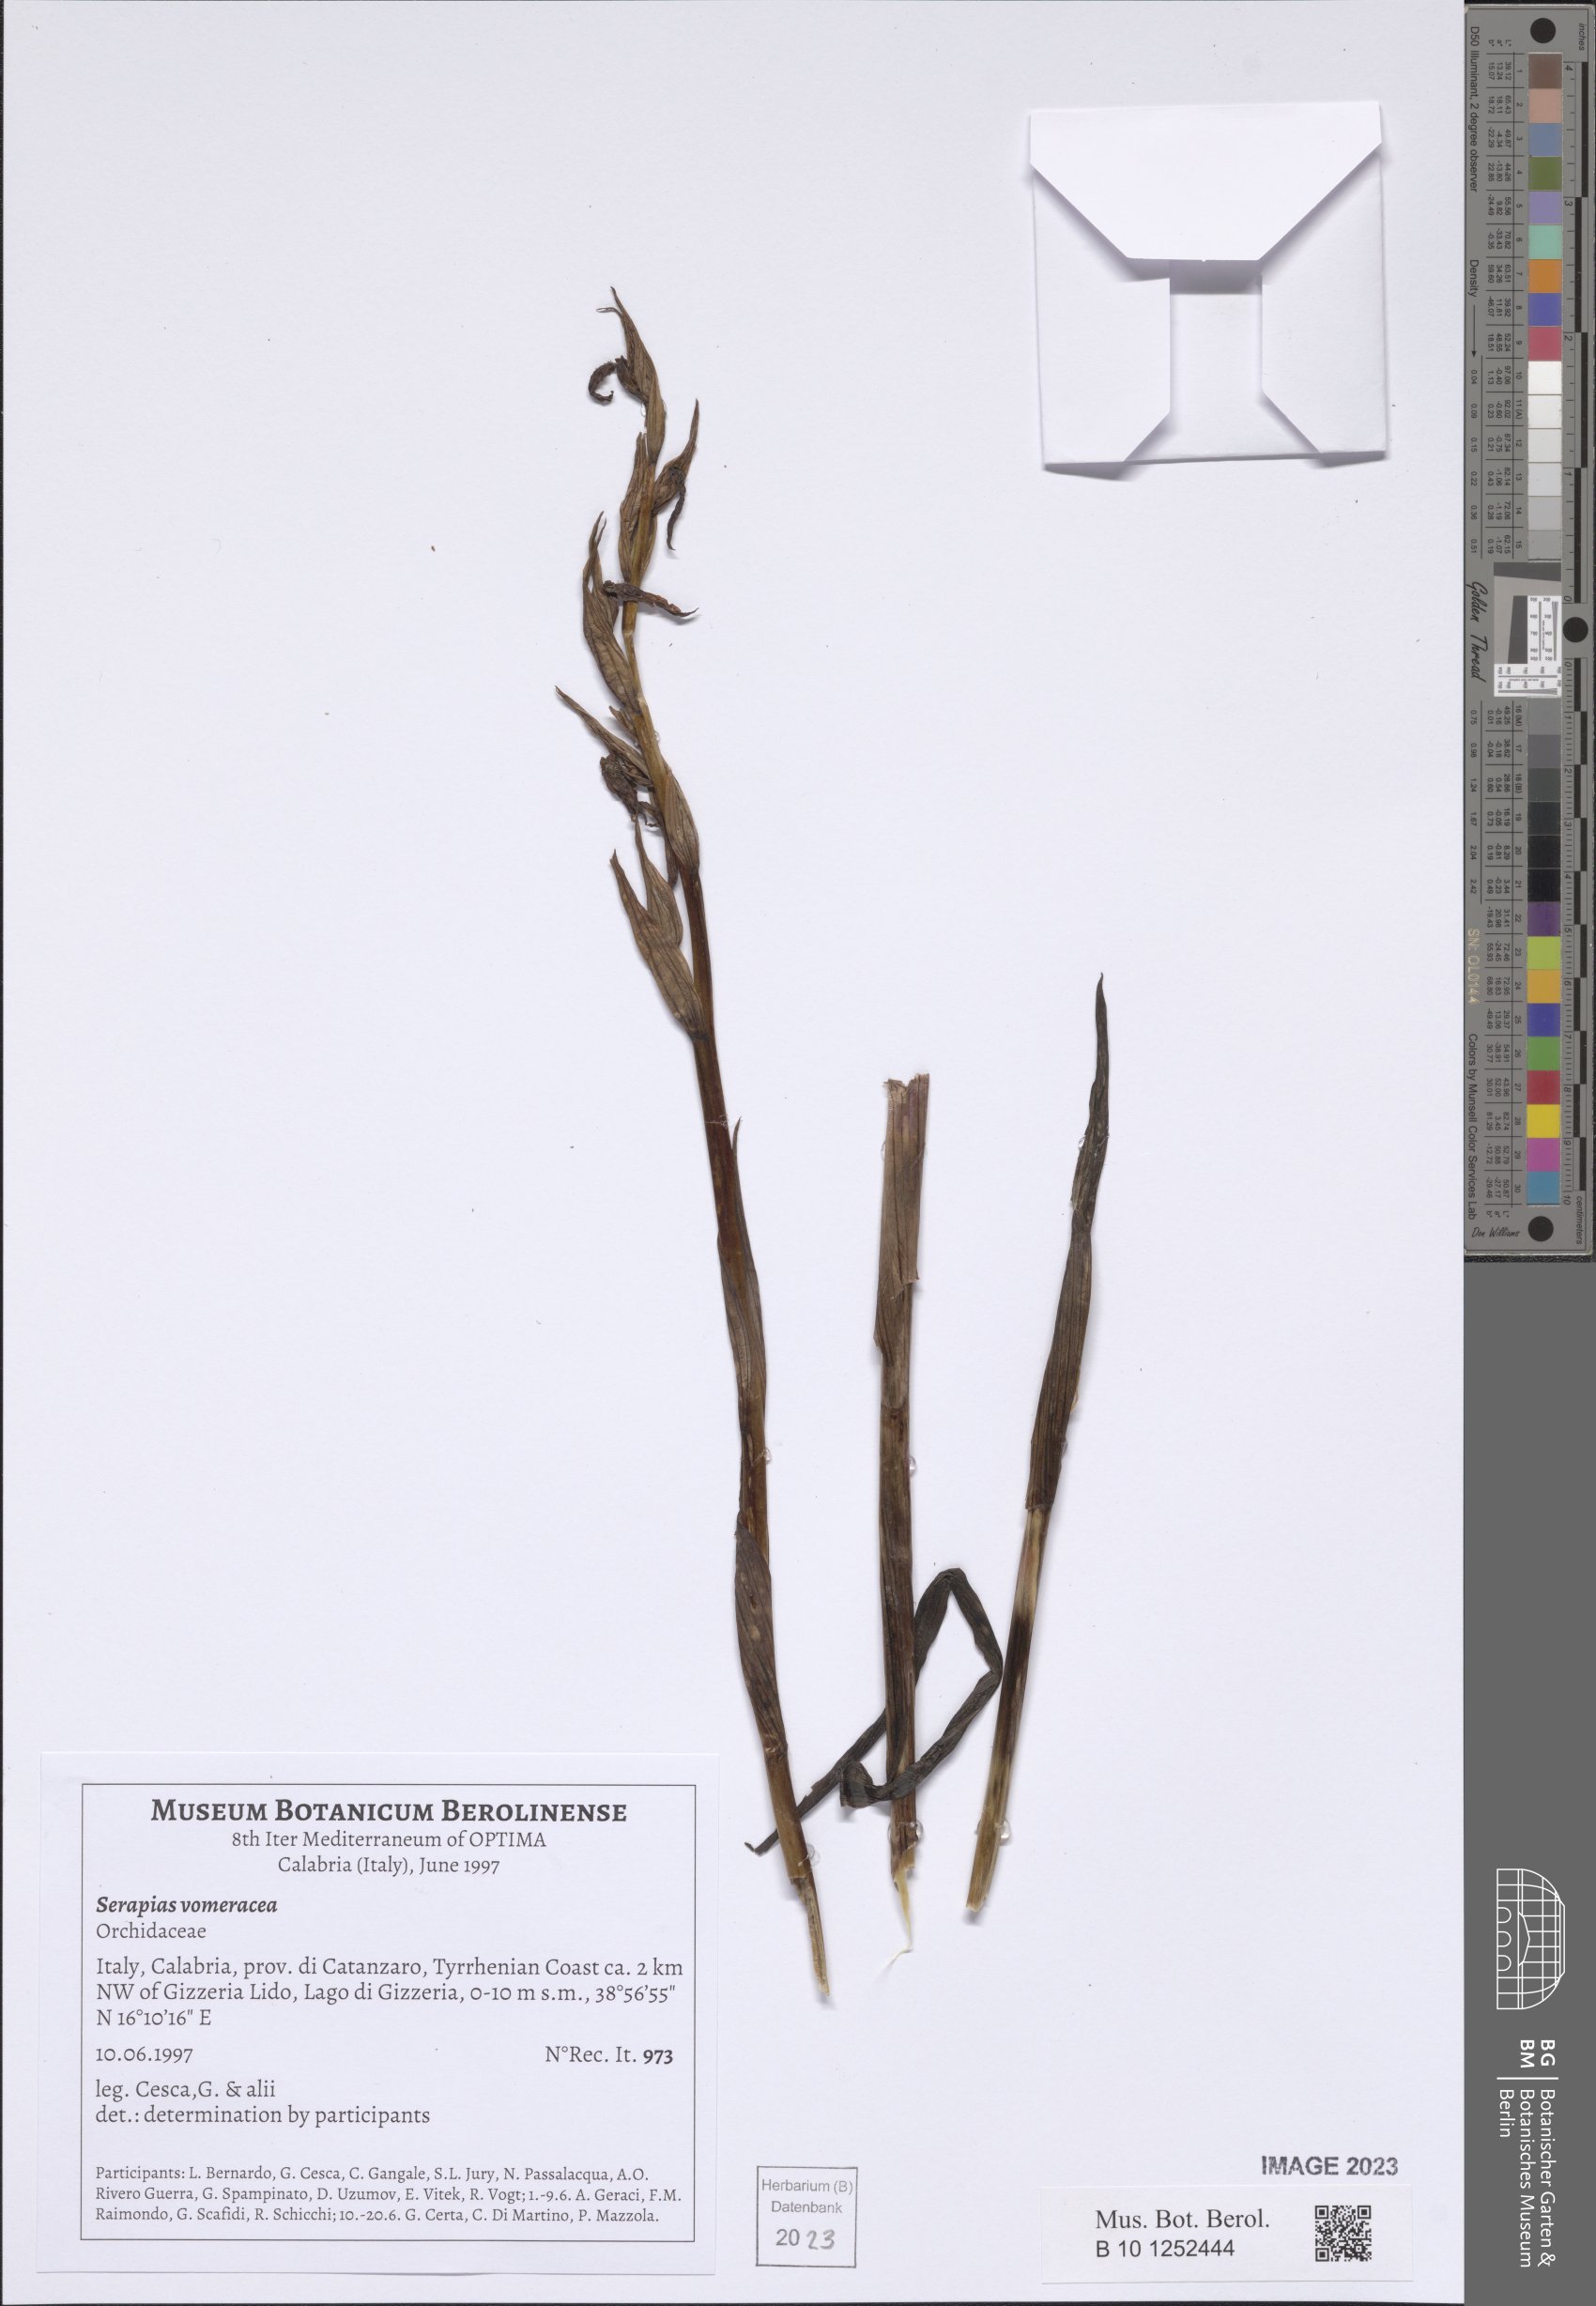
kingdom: Plantae
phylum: Tracheophyta
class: Liliopsida
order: Asparagales
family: Orchidaceae
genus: Serapias
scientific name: Serapias vomeracea
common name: Long-lipped tongue-orchid
